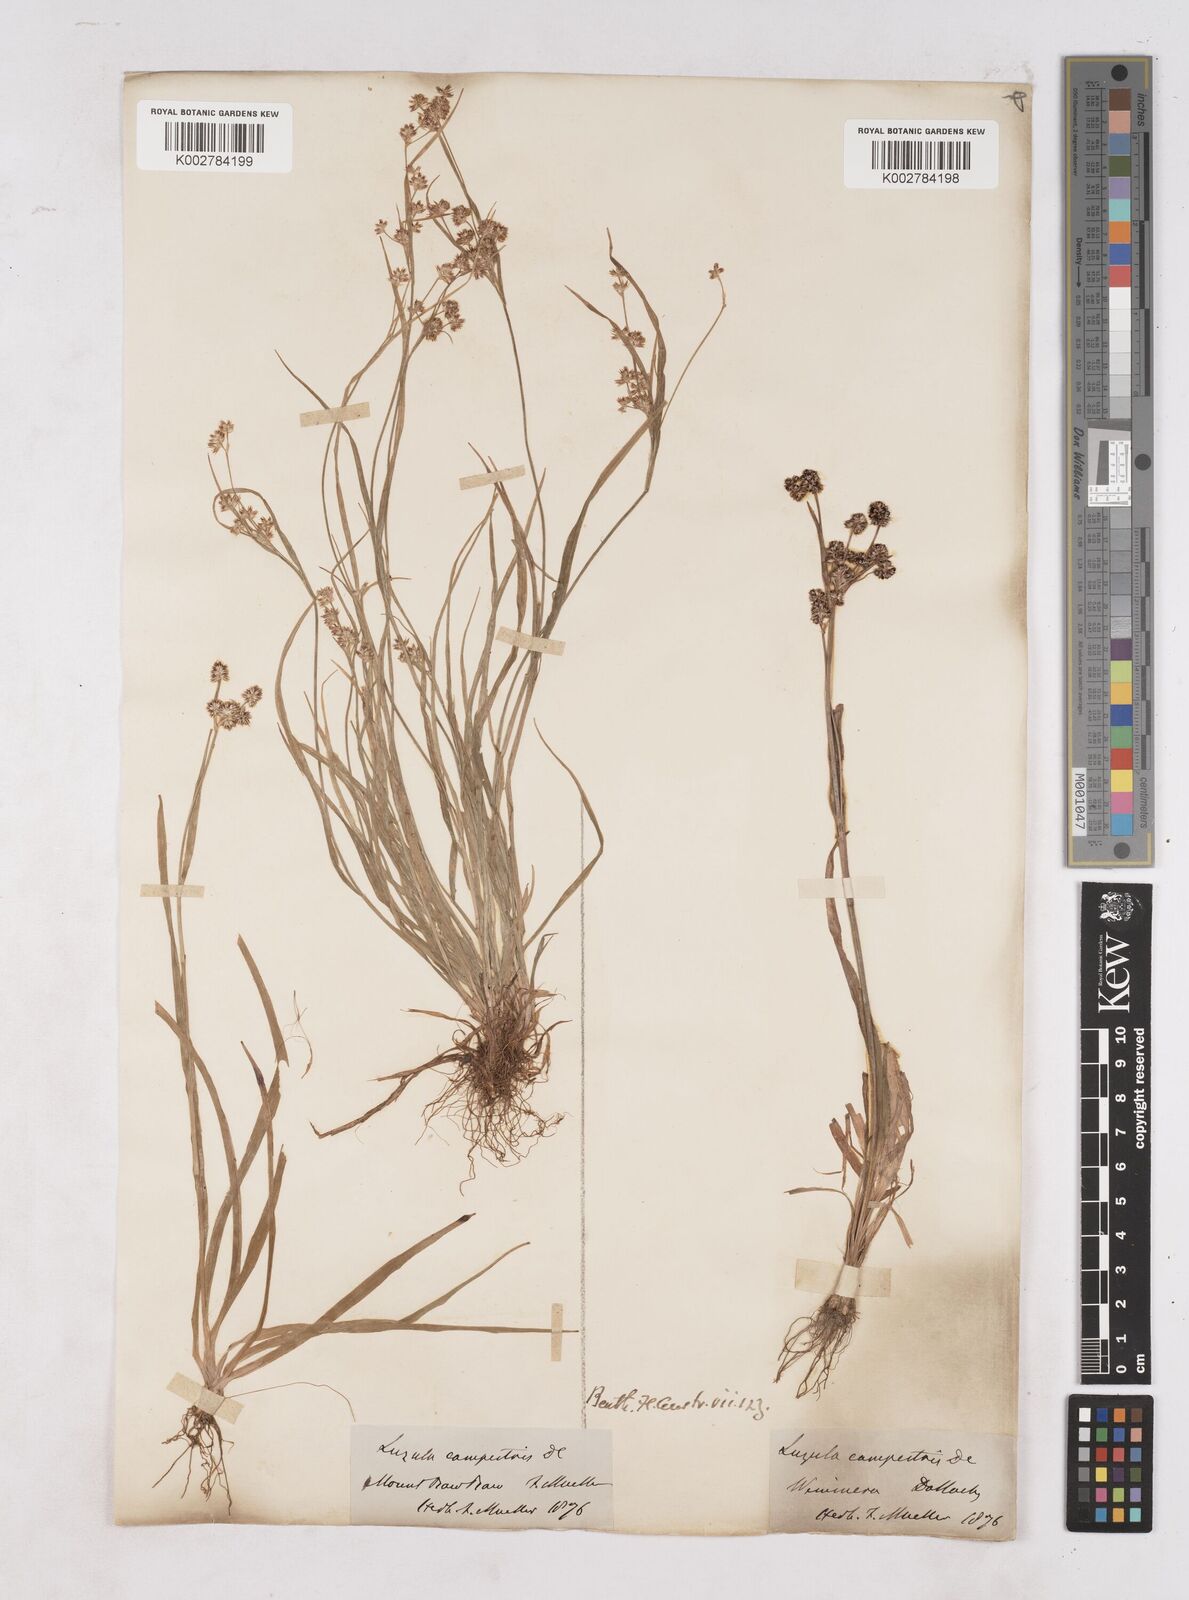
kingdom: Plantae
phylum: Tracheophyta
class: Liliopsida
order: Poales
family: Juncaceae
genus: Luzula
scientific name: Luzula campestris
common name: Field wood-rush
